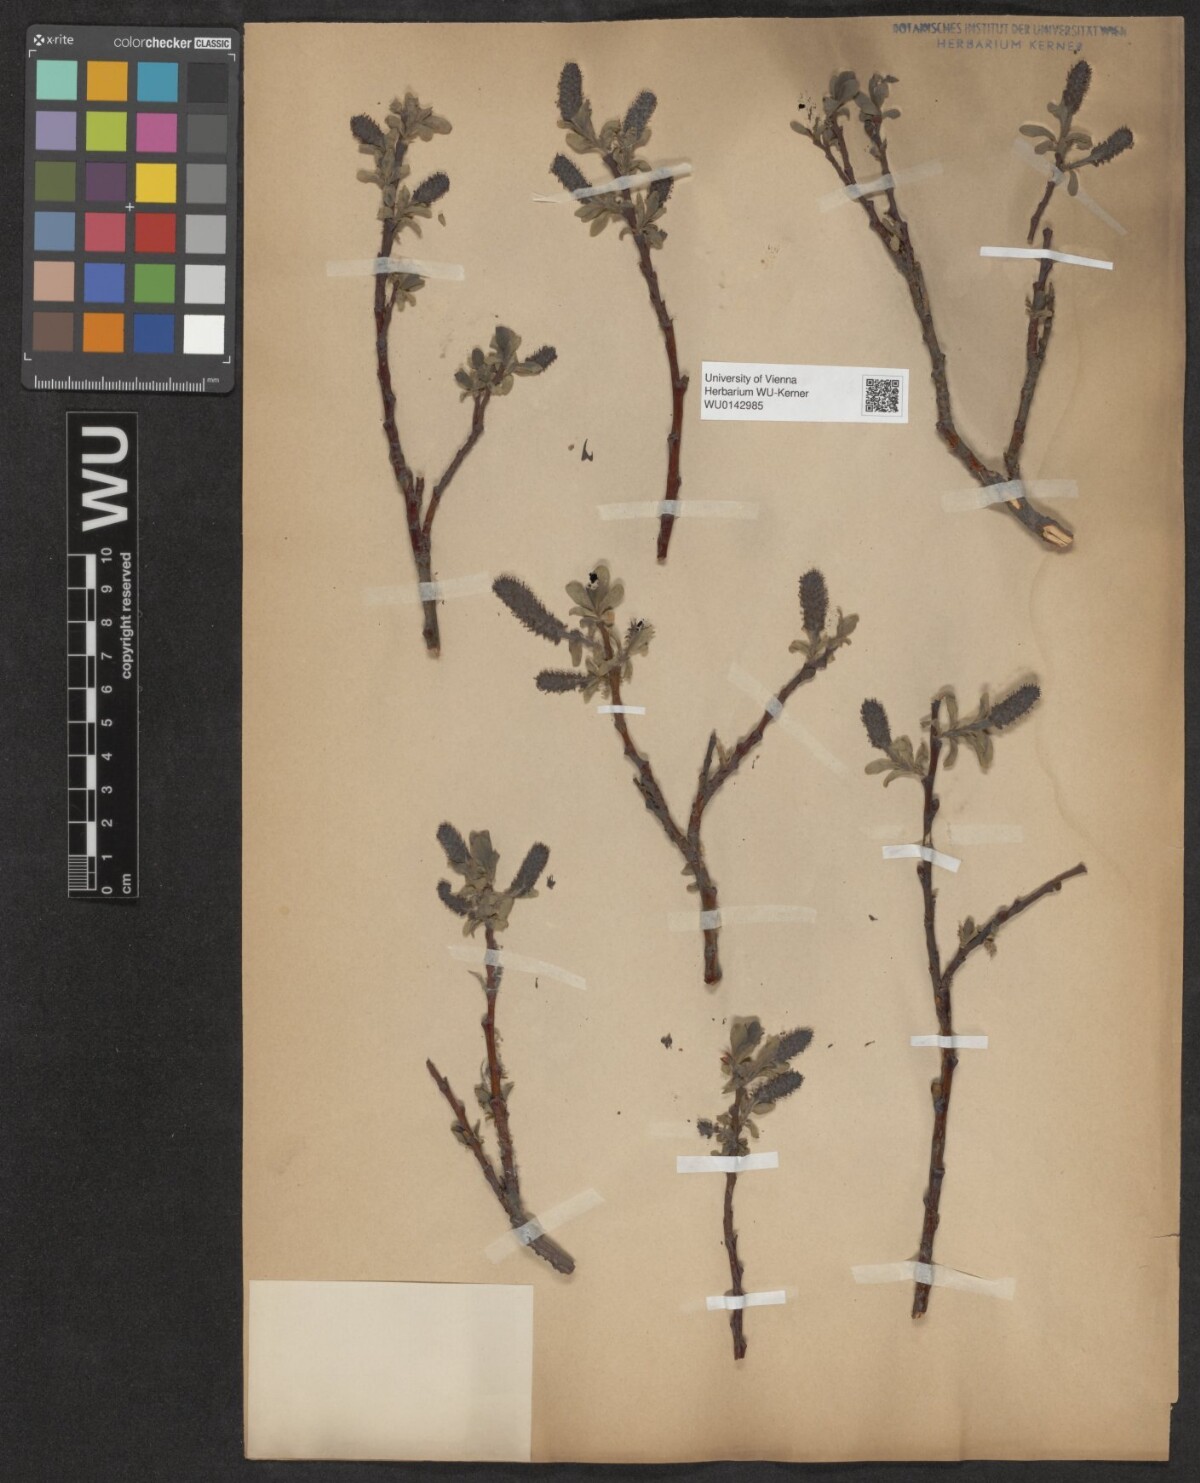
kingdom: Plantae
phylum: Tracheophyta
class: Magnoliopsida
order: Malpighiales
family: Salicaceae
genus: Salix
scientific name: Salix myrsinites
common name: Myrtle willow
